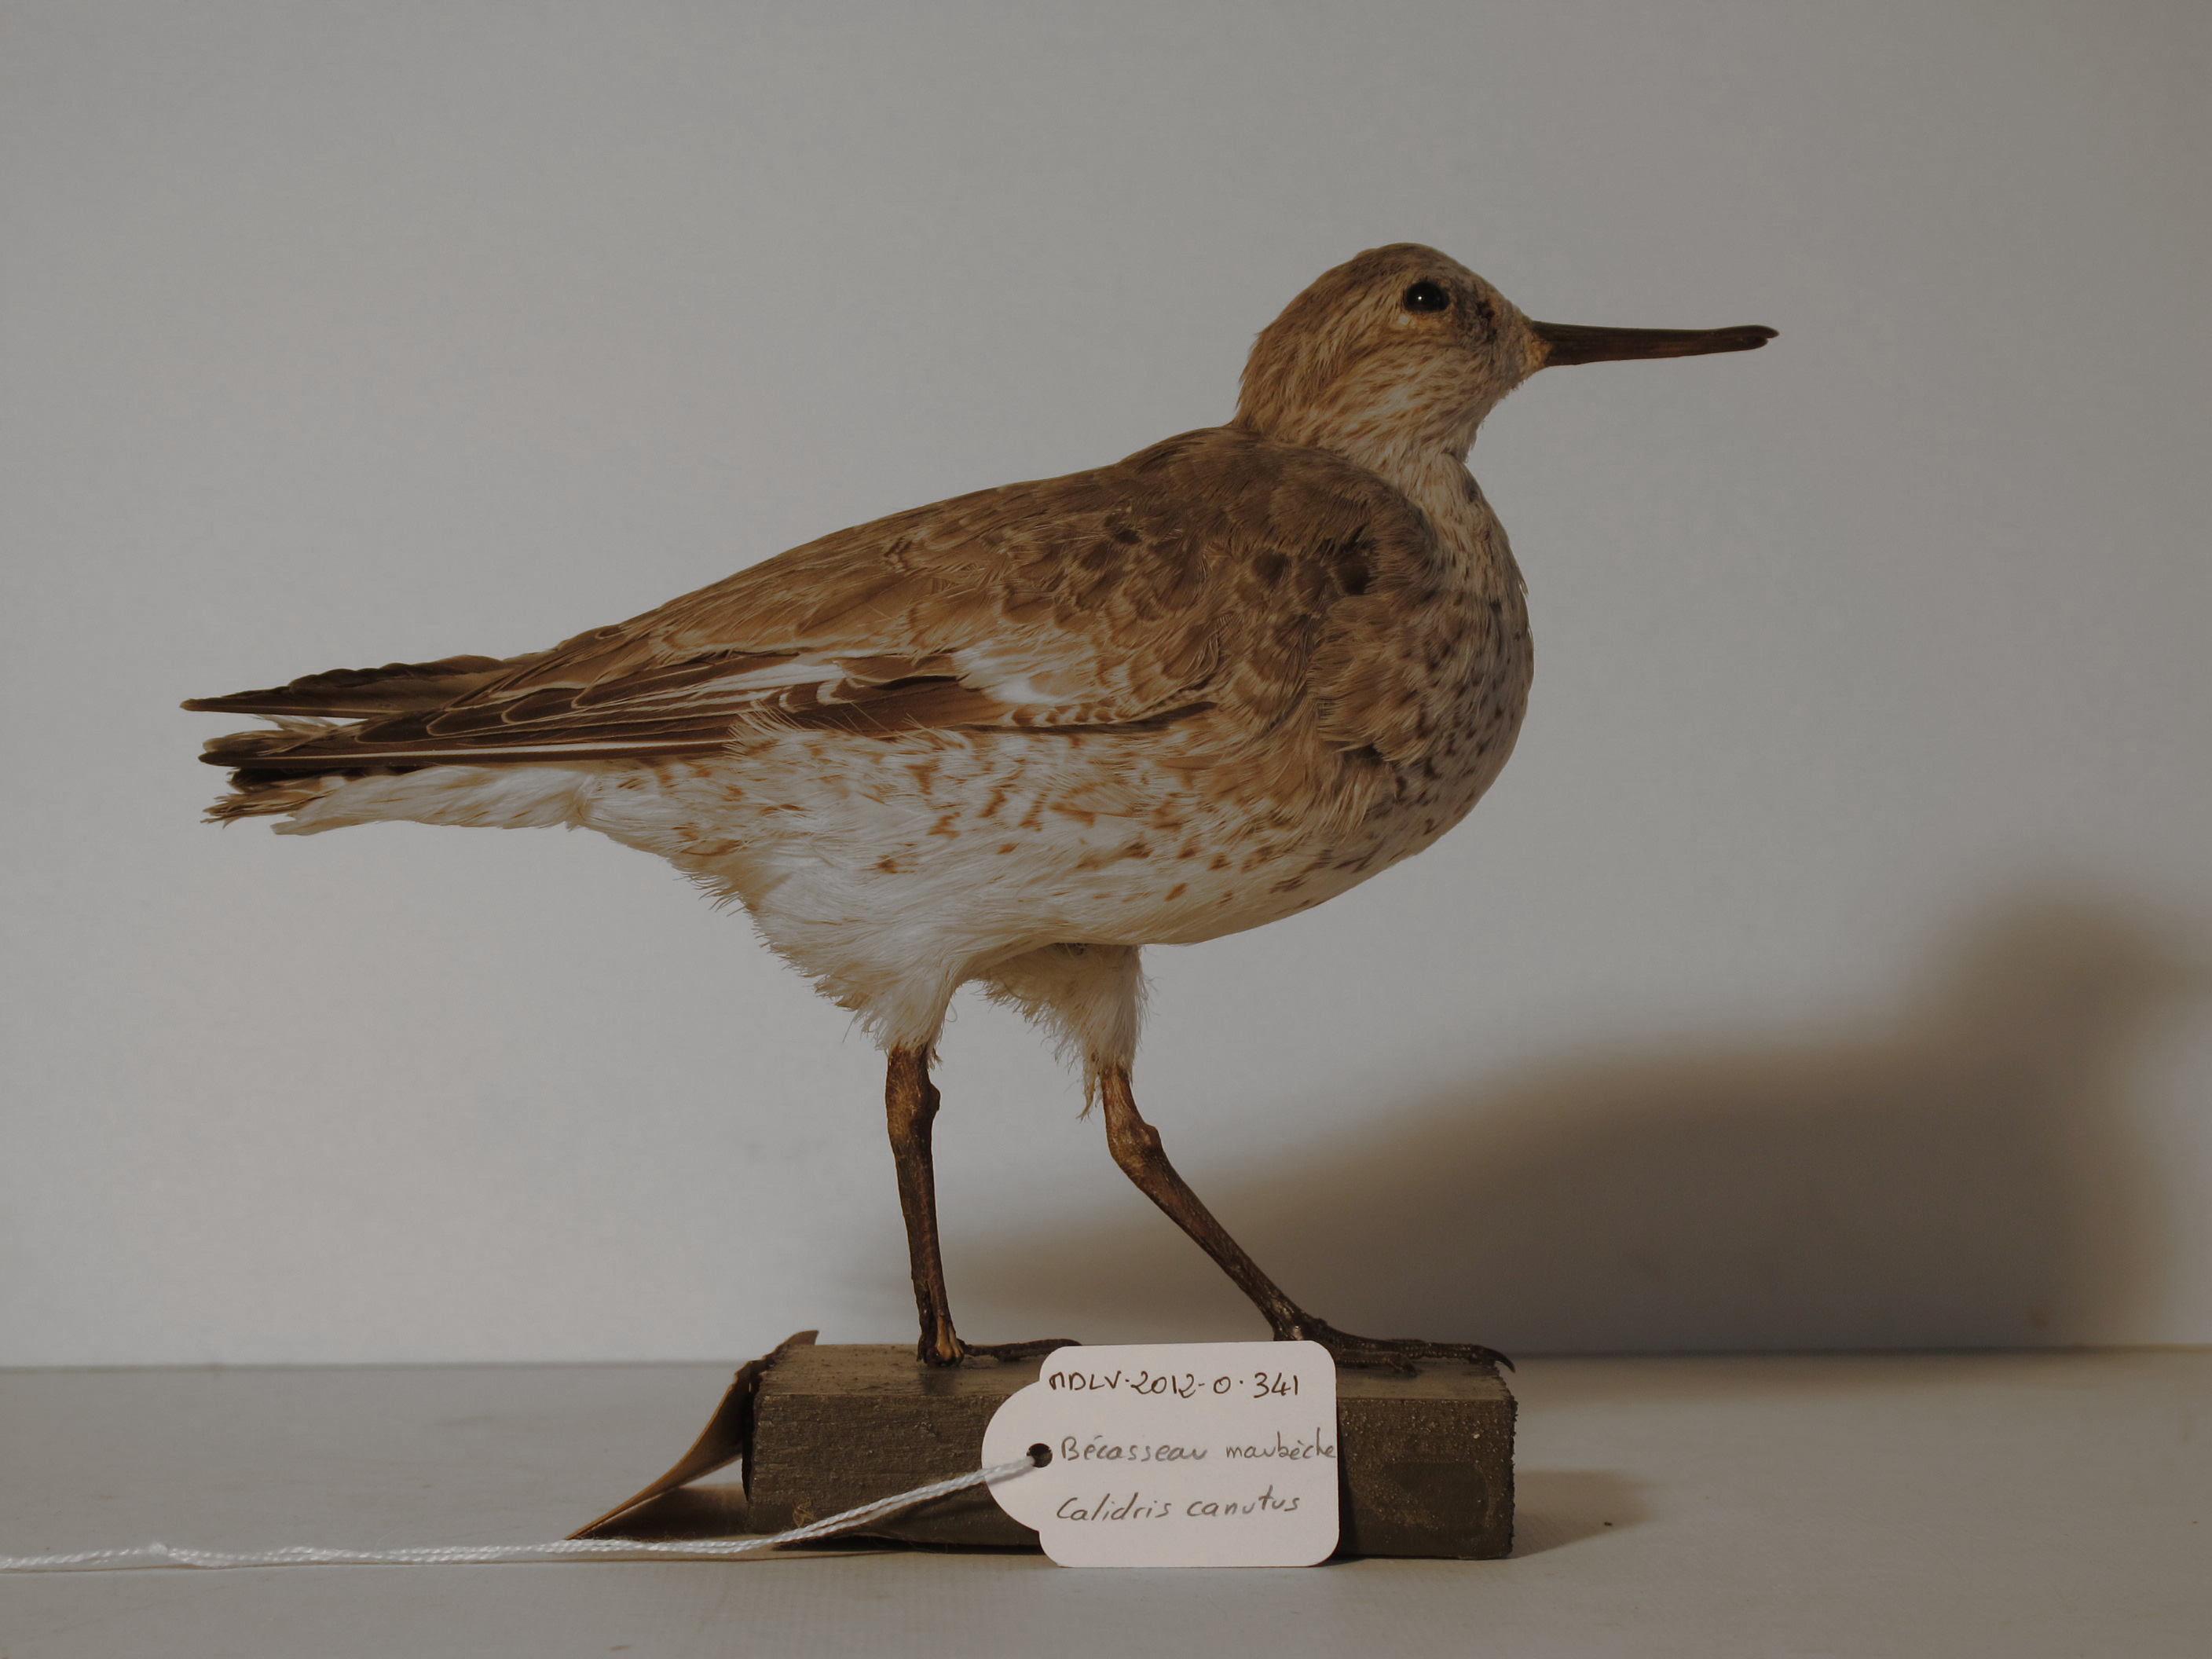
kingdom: Animalia
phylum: Chordata
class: Aves
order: Charadriiformes
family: Scolopacidae
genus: Calidris
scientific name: Calidris canutus
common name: Red Knot
